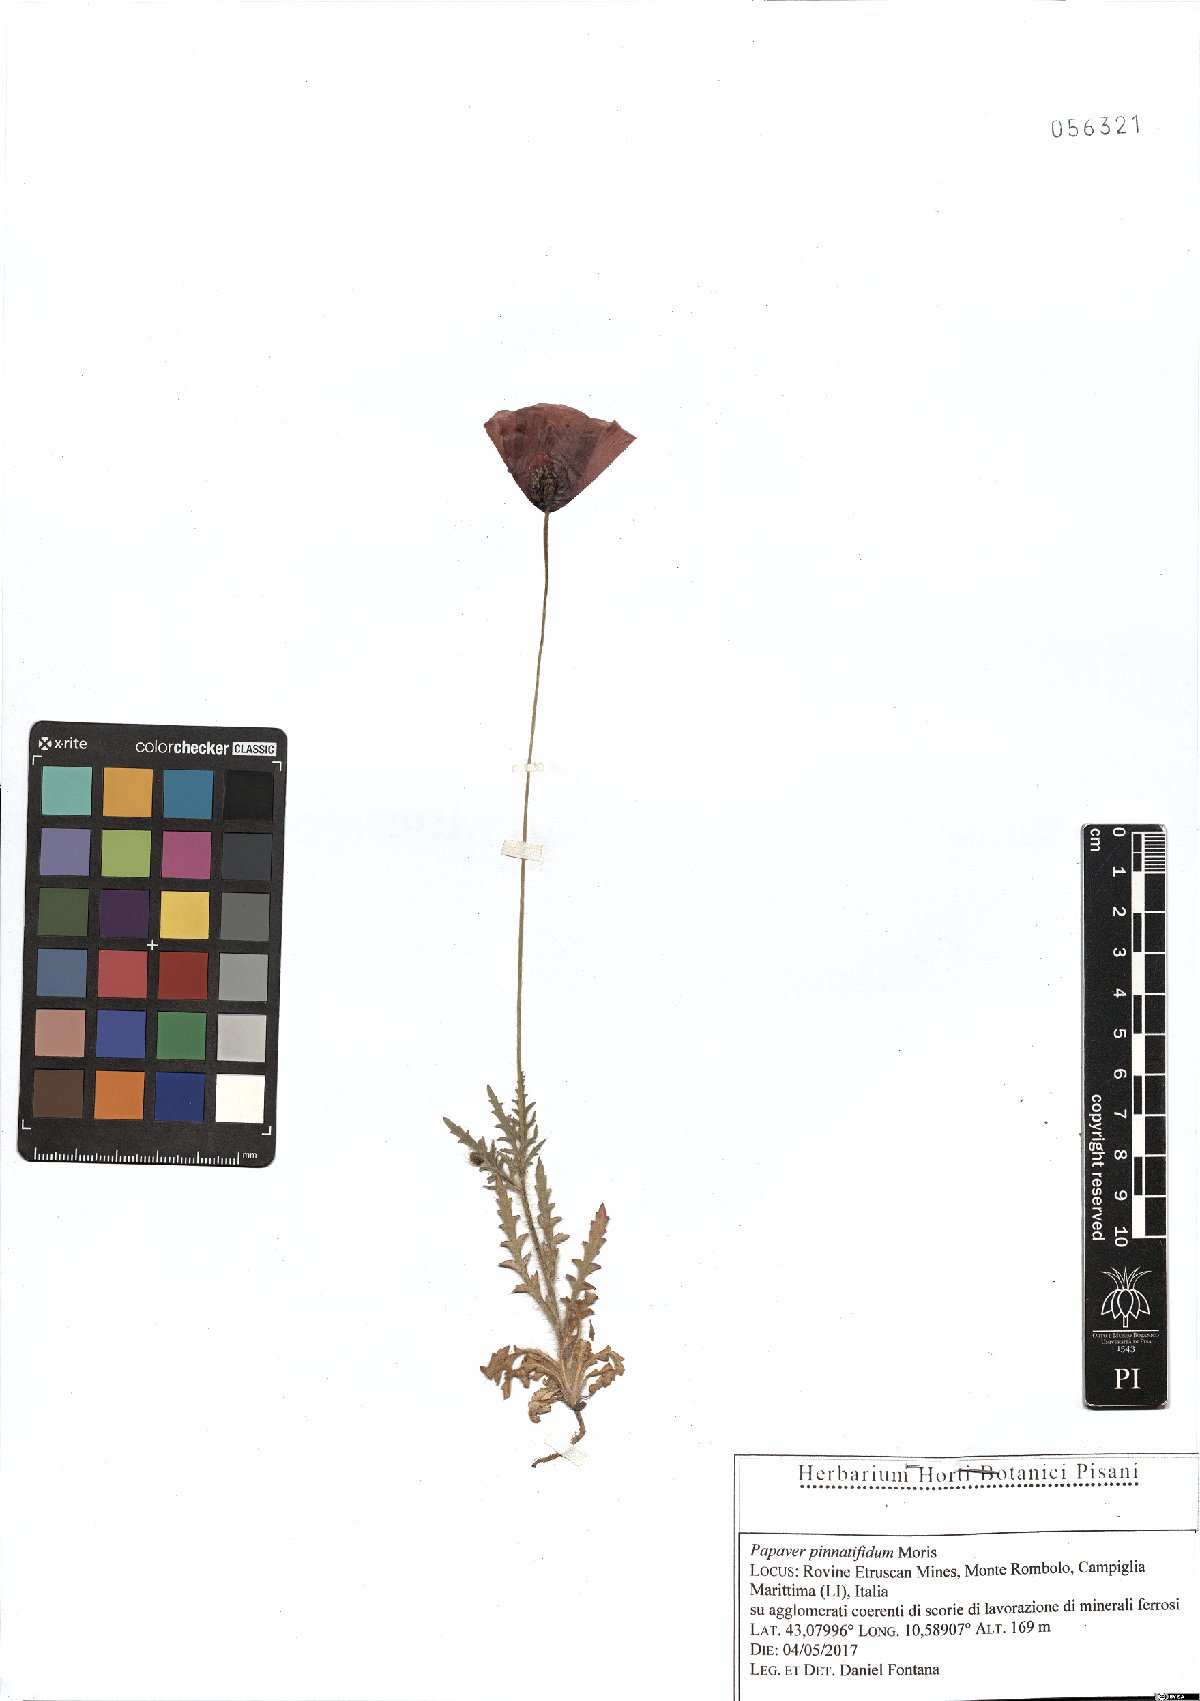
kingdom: Plantae
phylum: Tracheophyta
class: Magnoliopsida
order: Ranunculales
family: Papaveraceae
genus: Papaver
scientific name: Papaver pinnatifidum
